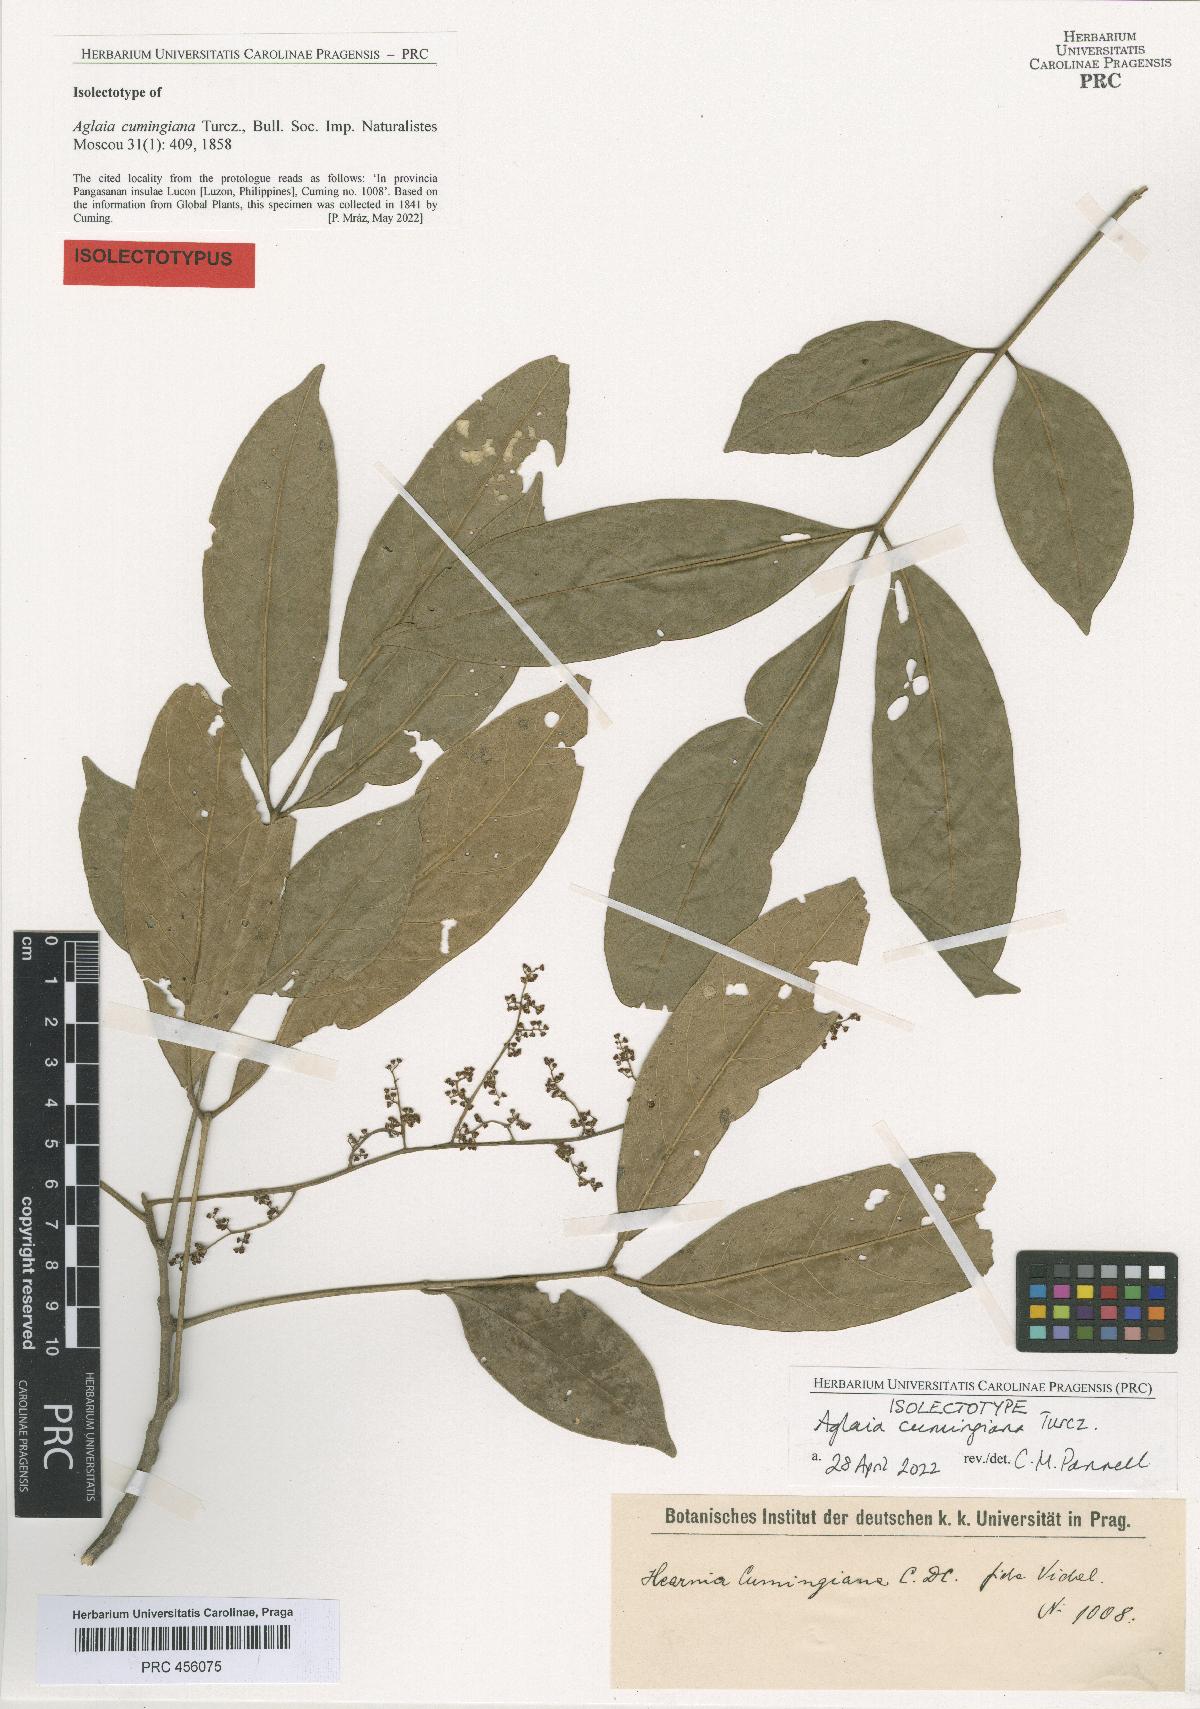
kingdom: Plantae
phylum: Tracheophyta
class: Magnoliopsida
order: Sapindales
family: Meliaceae
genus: Aglaia
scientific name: Aglaia cumingiana
